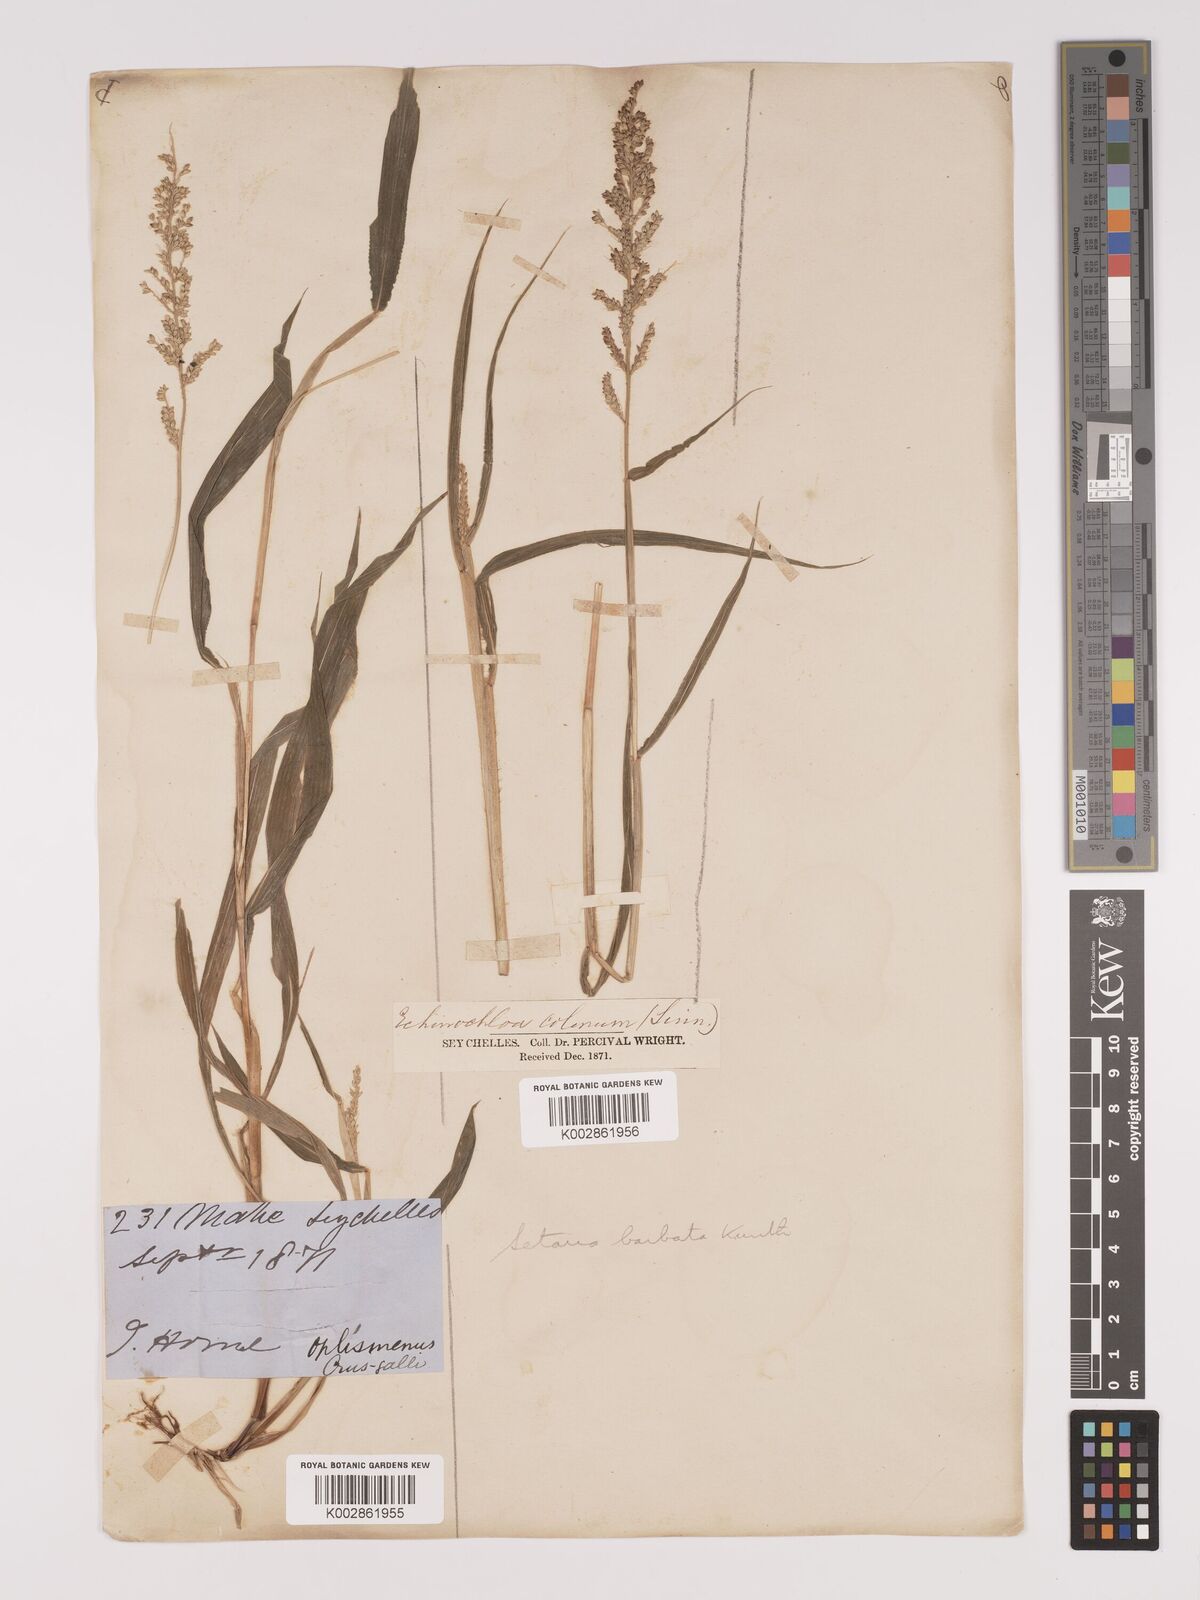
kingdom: Plantae
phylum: Tracheophyta
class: Liliopsida
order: Poales
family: Poaceae
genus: Setaria
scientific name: Setaria barbata
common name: East indian bristlegrass
